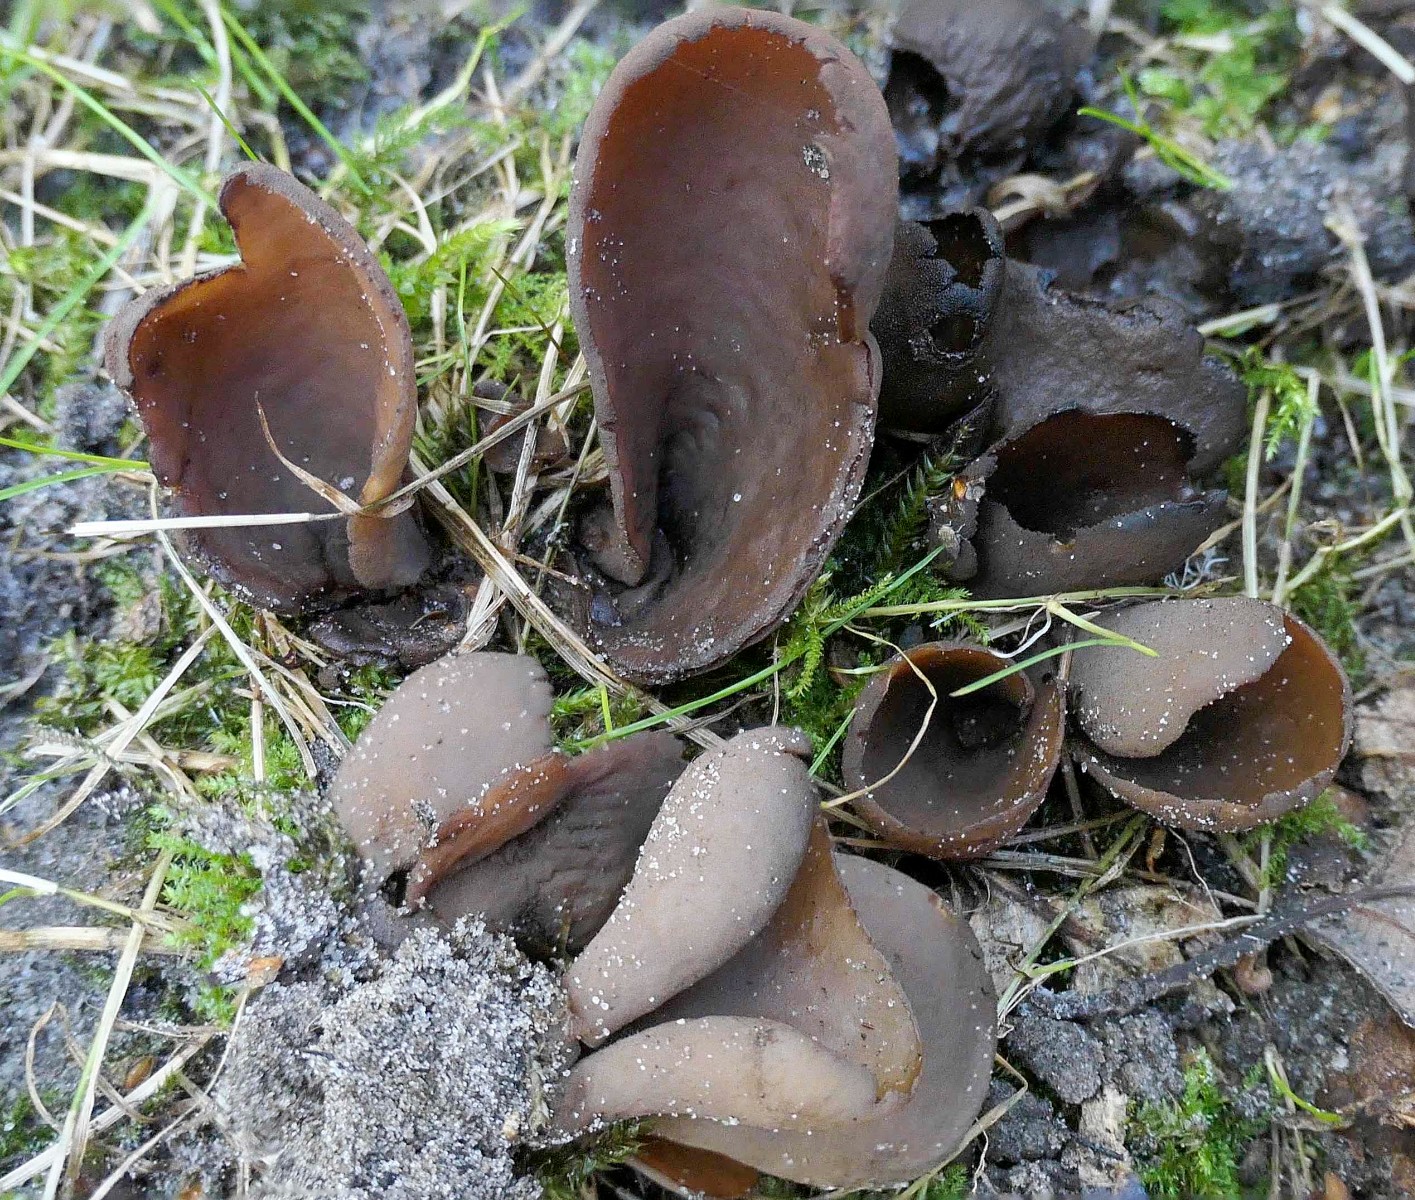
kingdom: Fungi
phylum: Ascomycota
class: Pezizomycetes
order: Pezizales
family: Otideaceae
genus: Otidea
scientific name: Otidea bufonia
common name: brun ørebæger
